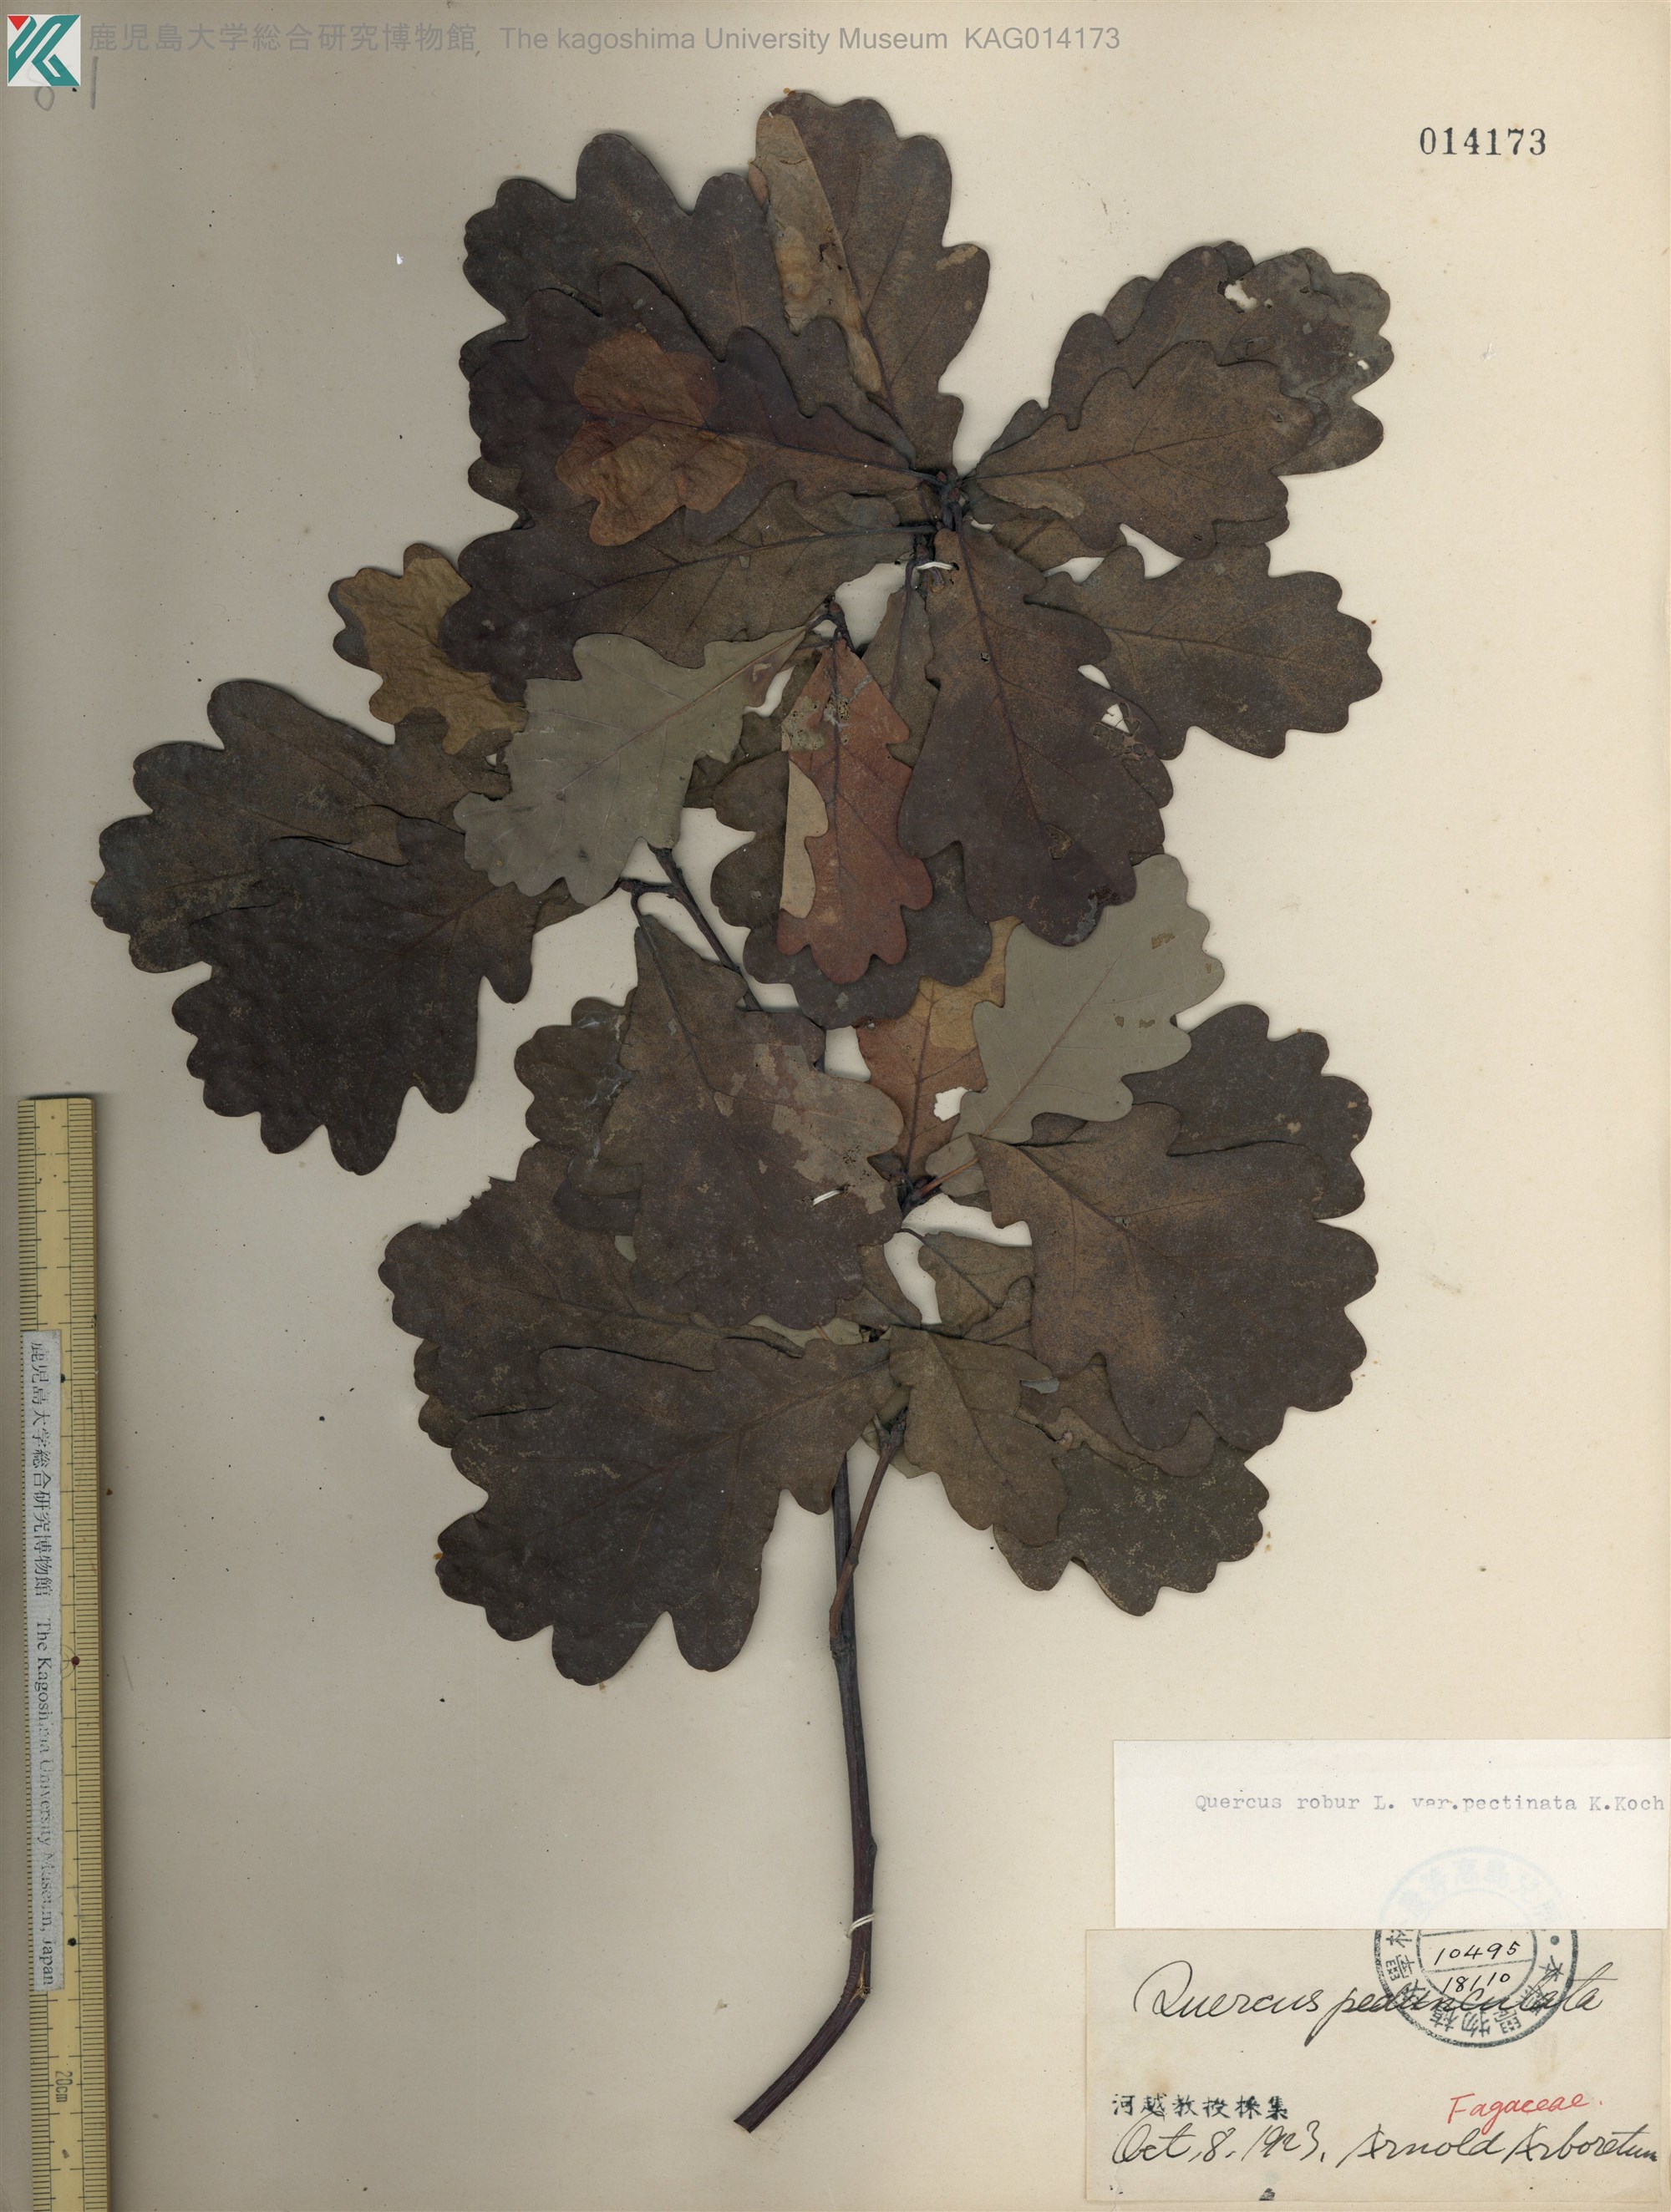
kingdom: Plantae
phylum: Tracheophyta
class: Magnoliopsida
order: Fagales
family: Fagaceae
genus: Quercus
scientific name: Quercus robur
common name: Pedunculate oak
